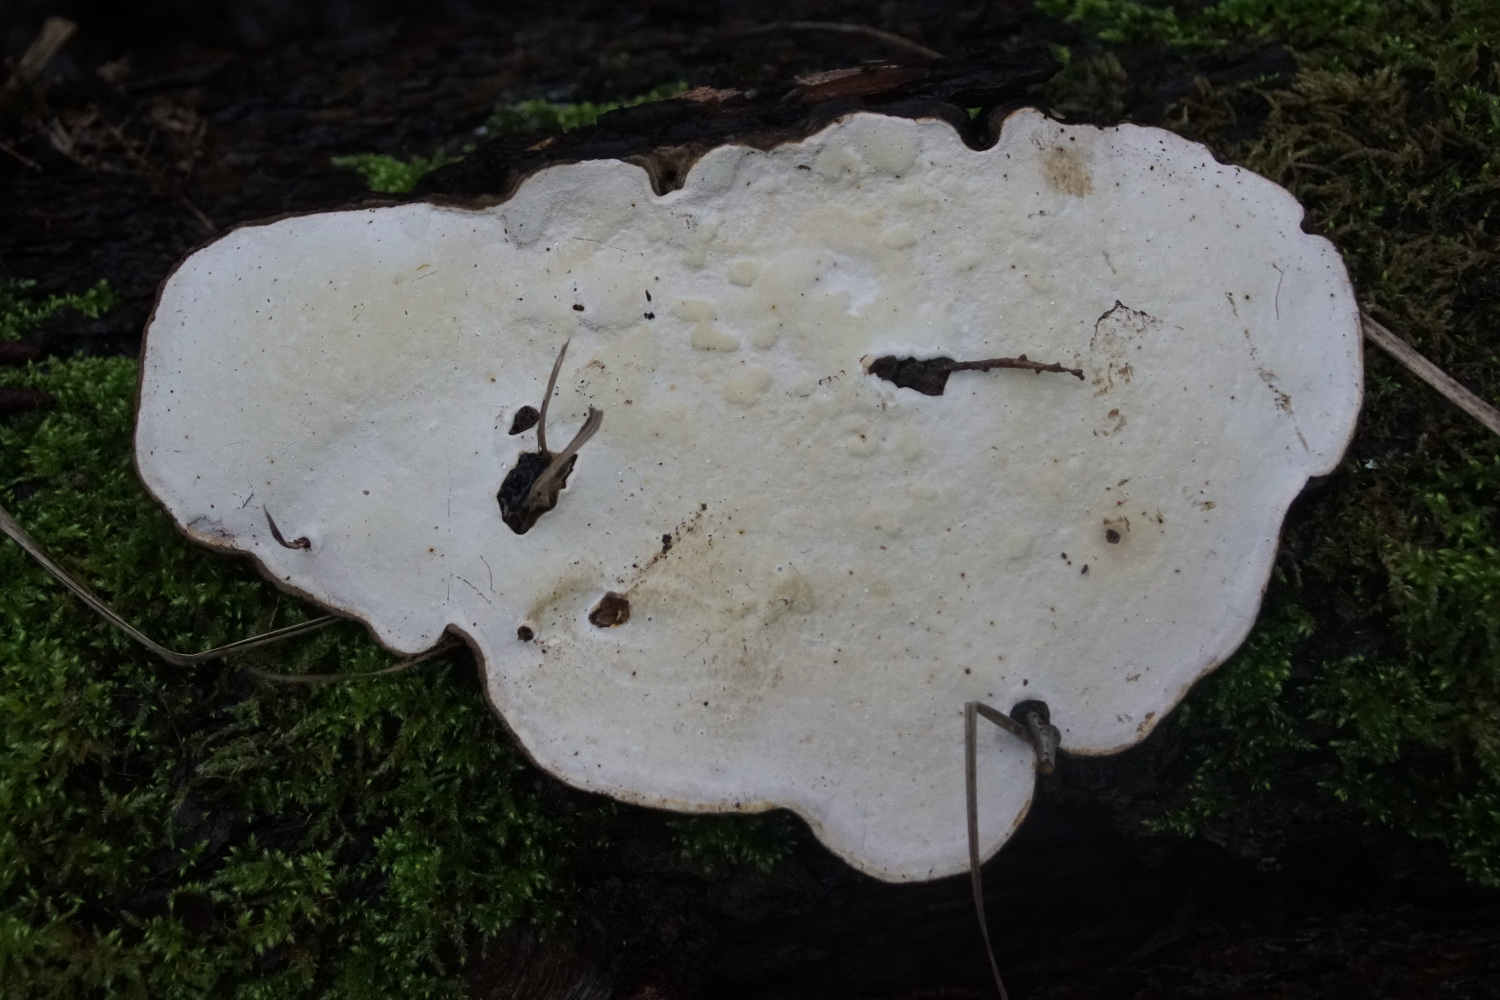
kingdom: Fungi
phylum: Basidiomycota
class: Agaricomycetes
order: Polyporales
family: Polyporaceae
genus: Ganoderma
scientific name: Ganoderma applanatum
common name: flad lakporesvamp
